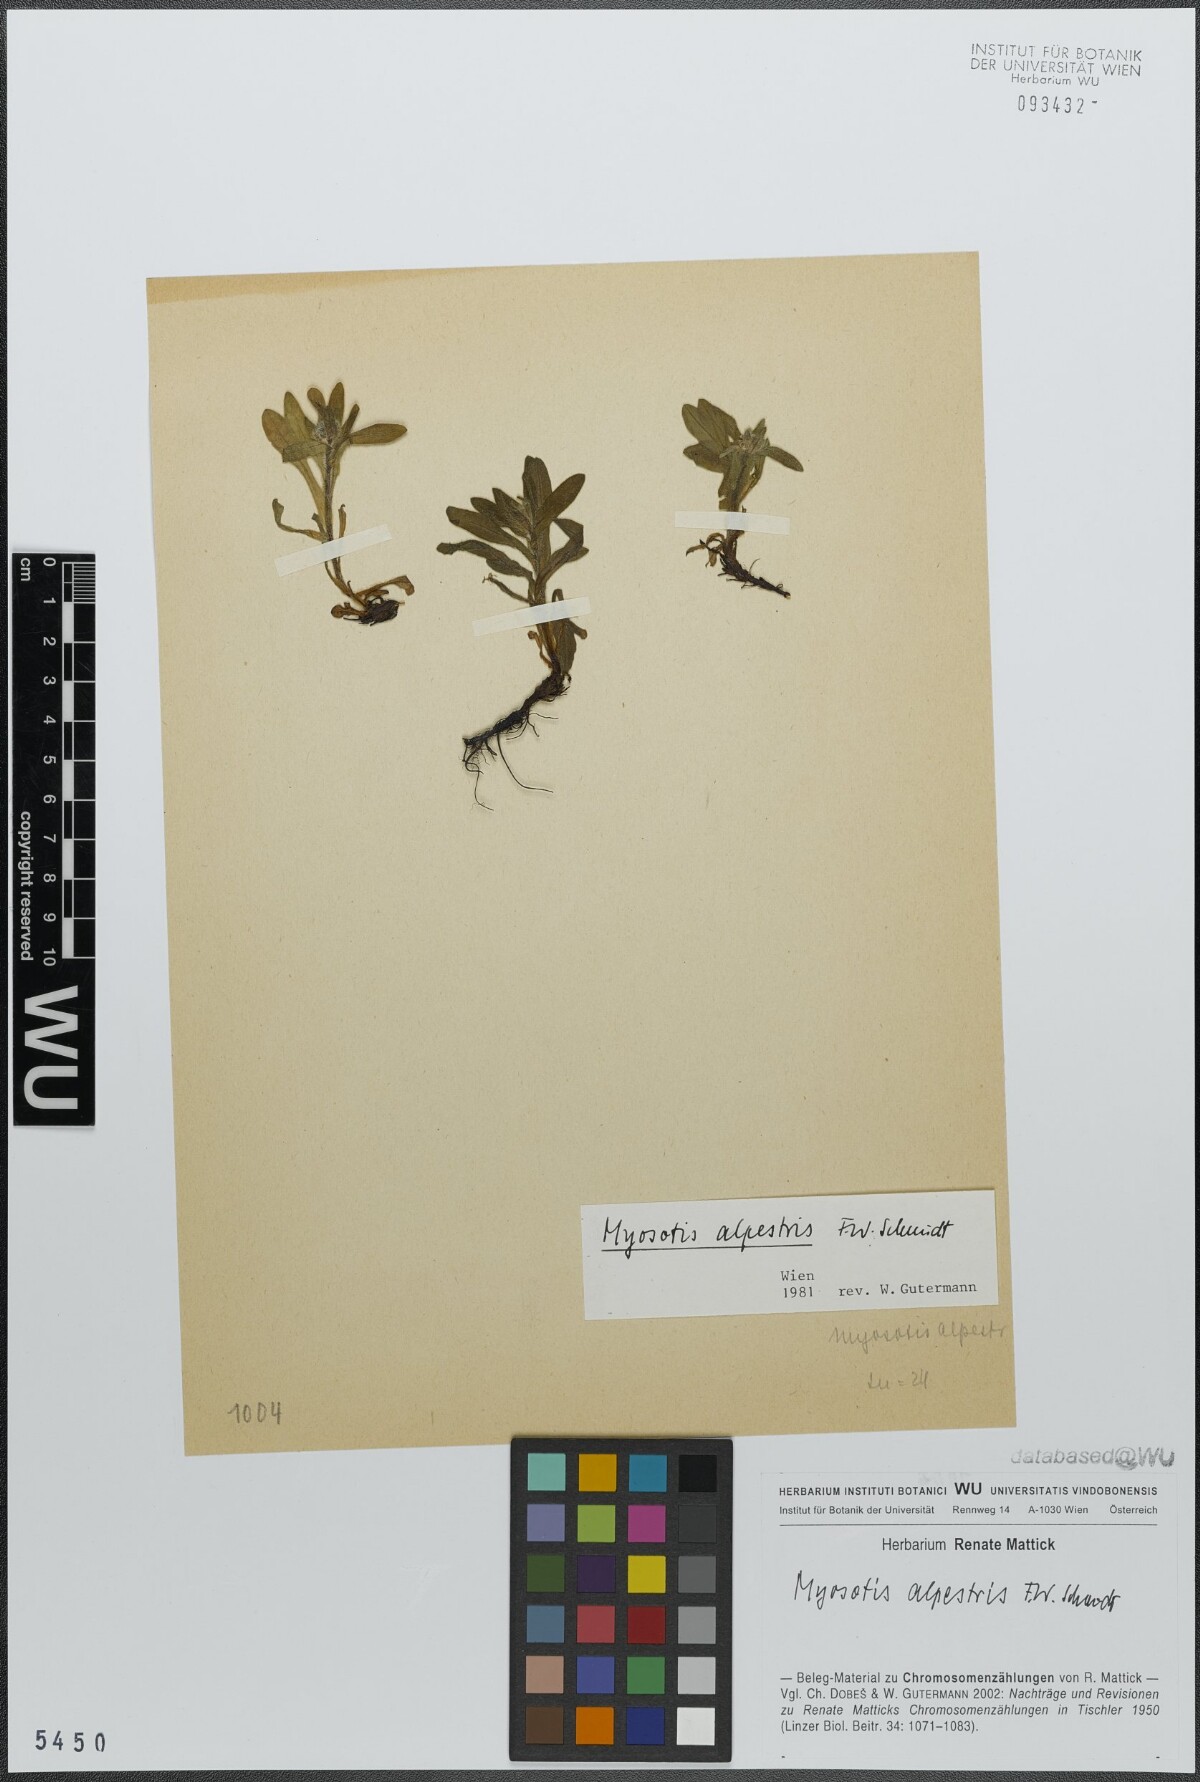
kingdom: Plantae
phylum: Tracheophyta
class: Magnoliopsida
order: Boraginales
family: Boraginaceae
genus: Myosotis
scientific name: Myosotis alpestris
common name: Alpine forget-me-not
